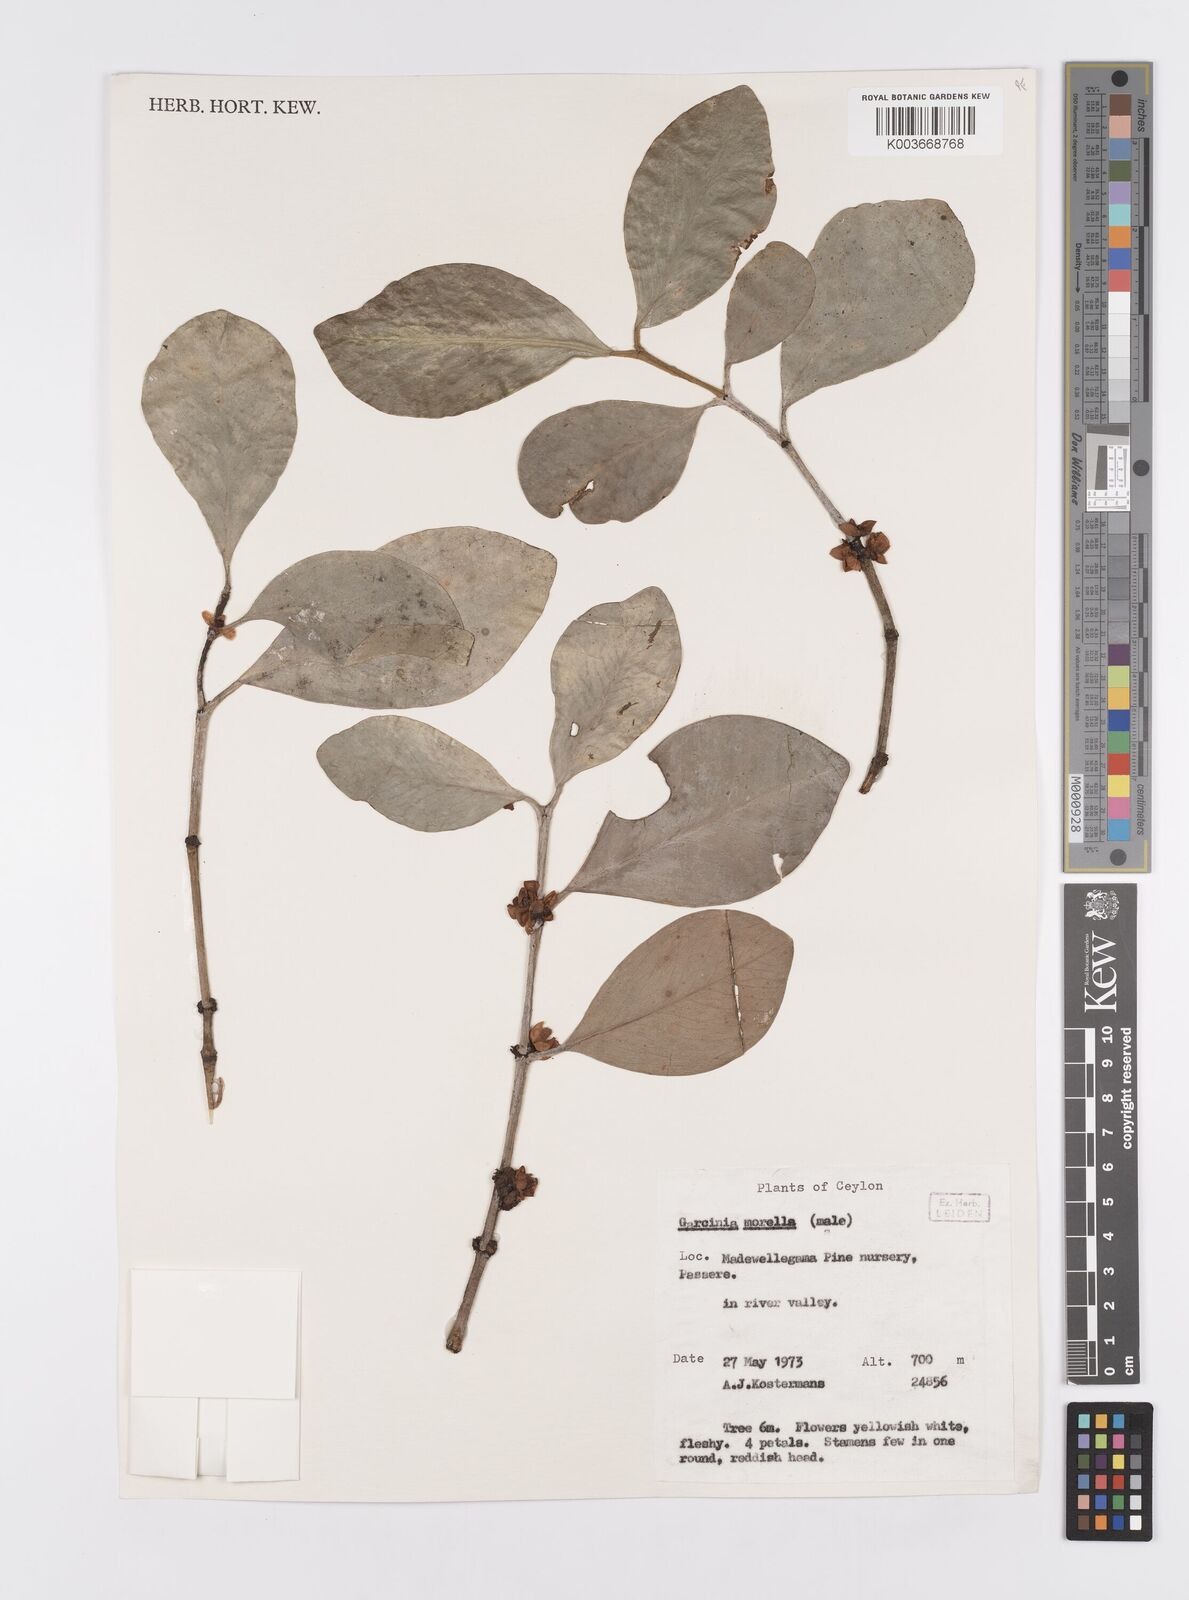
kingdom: Plantae
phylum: Tracheophyta
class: Magnoliopsida
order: Malpighiales
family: Clusiaceae
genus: Garcinia
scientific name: Garcinia morella
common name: Indian gamboge-tree
